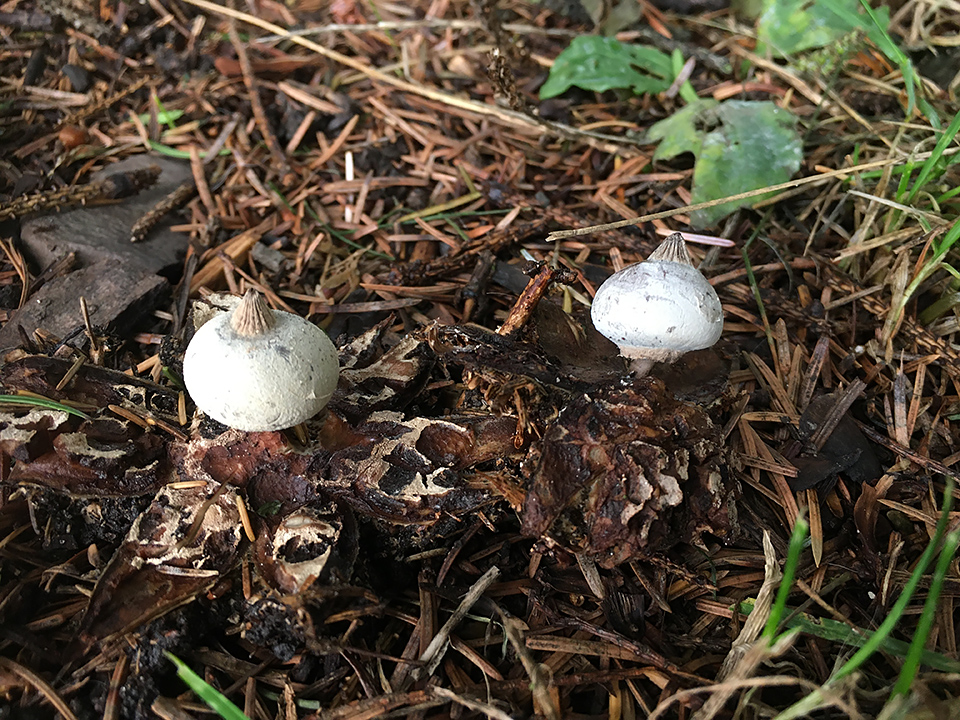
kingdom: Fungi
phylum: Basidiomycota
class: Agaricomycetes
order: Geastrales
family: Geastraceae
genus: Geastrum
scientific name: Geastrum striatum
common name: krave-stjernebold
